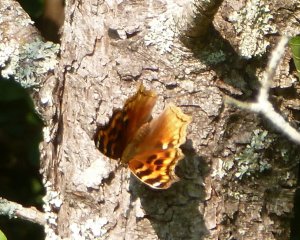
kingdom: Animalia
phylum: Arthropoda
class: Insecta
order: Lepidoptera
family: Nymphalidae
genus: Polygonia
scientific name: Polygonia vaualbum
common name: Compton Tortoiseshell
